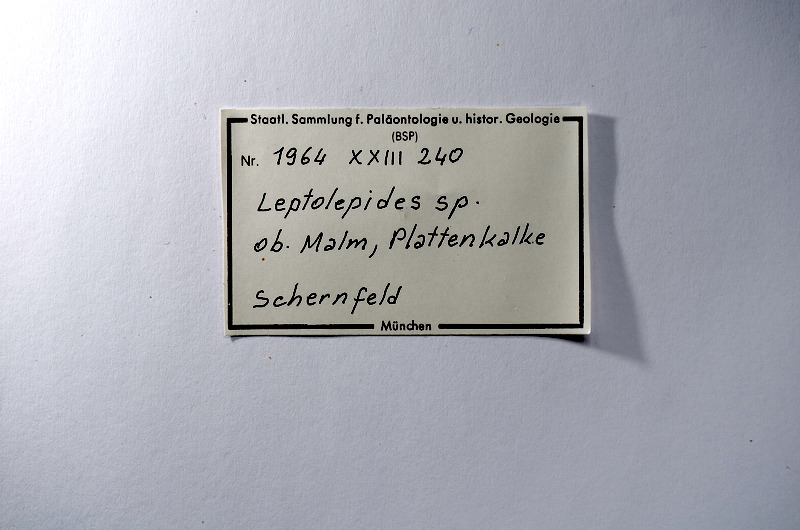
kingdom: Animalia
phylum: Chordata
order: Salmoniformes
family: Orthogonikleithridae
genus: Leptolepides
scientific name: Leptolepides
